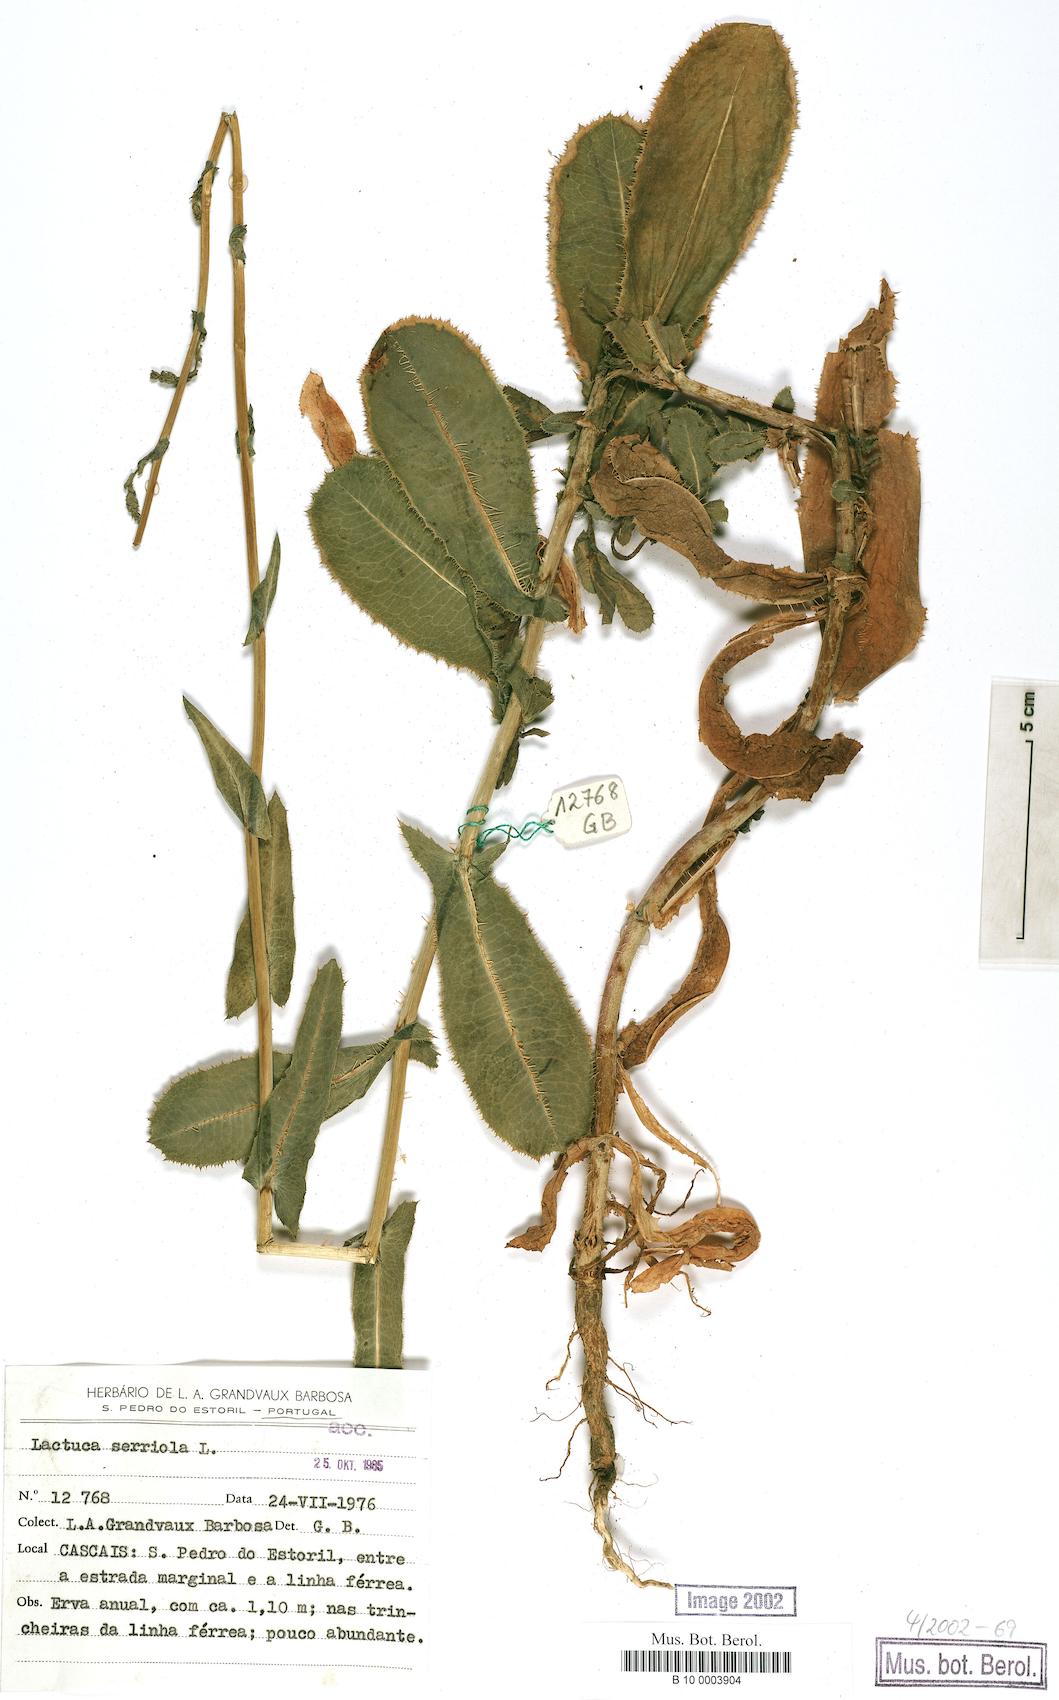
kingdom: Plantae
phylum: Tracheophyta
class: Magnoliopsida
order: Asterales
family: Asteraceae
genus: Lactuca
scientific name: Lactuca serriola
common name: Prickly lettuce
